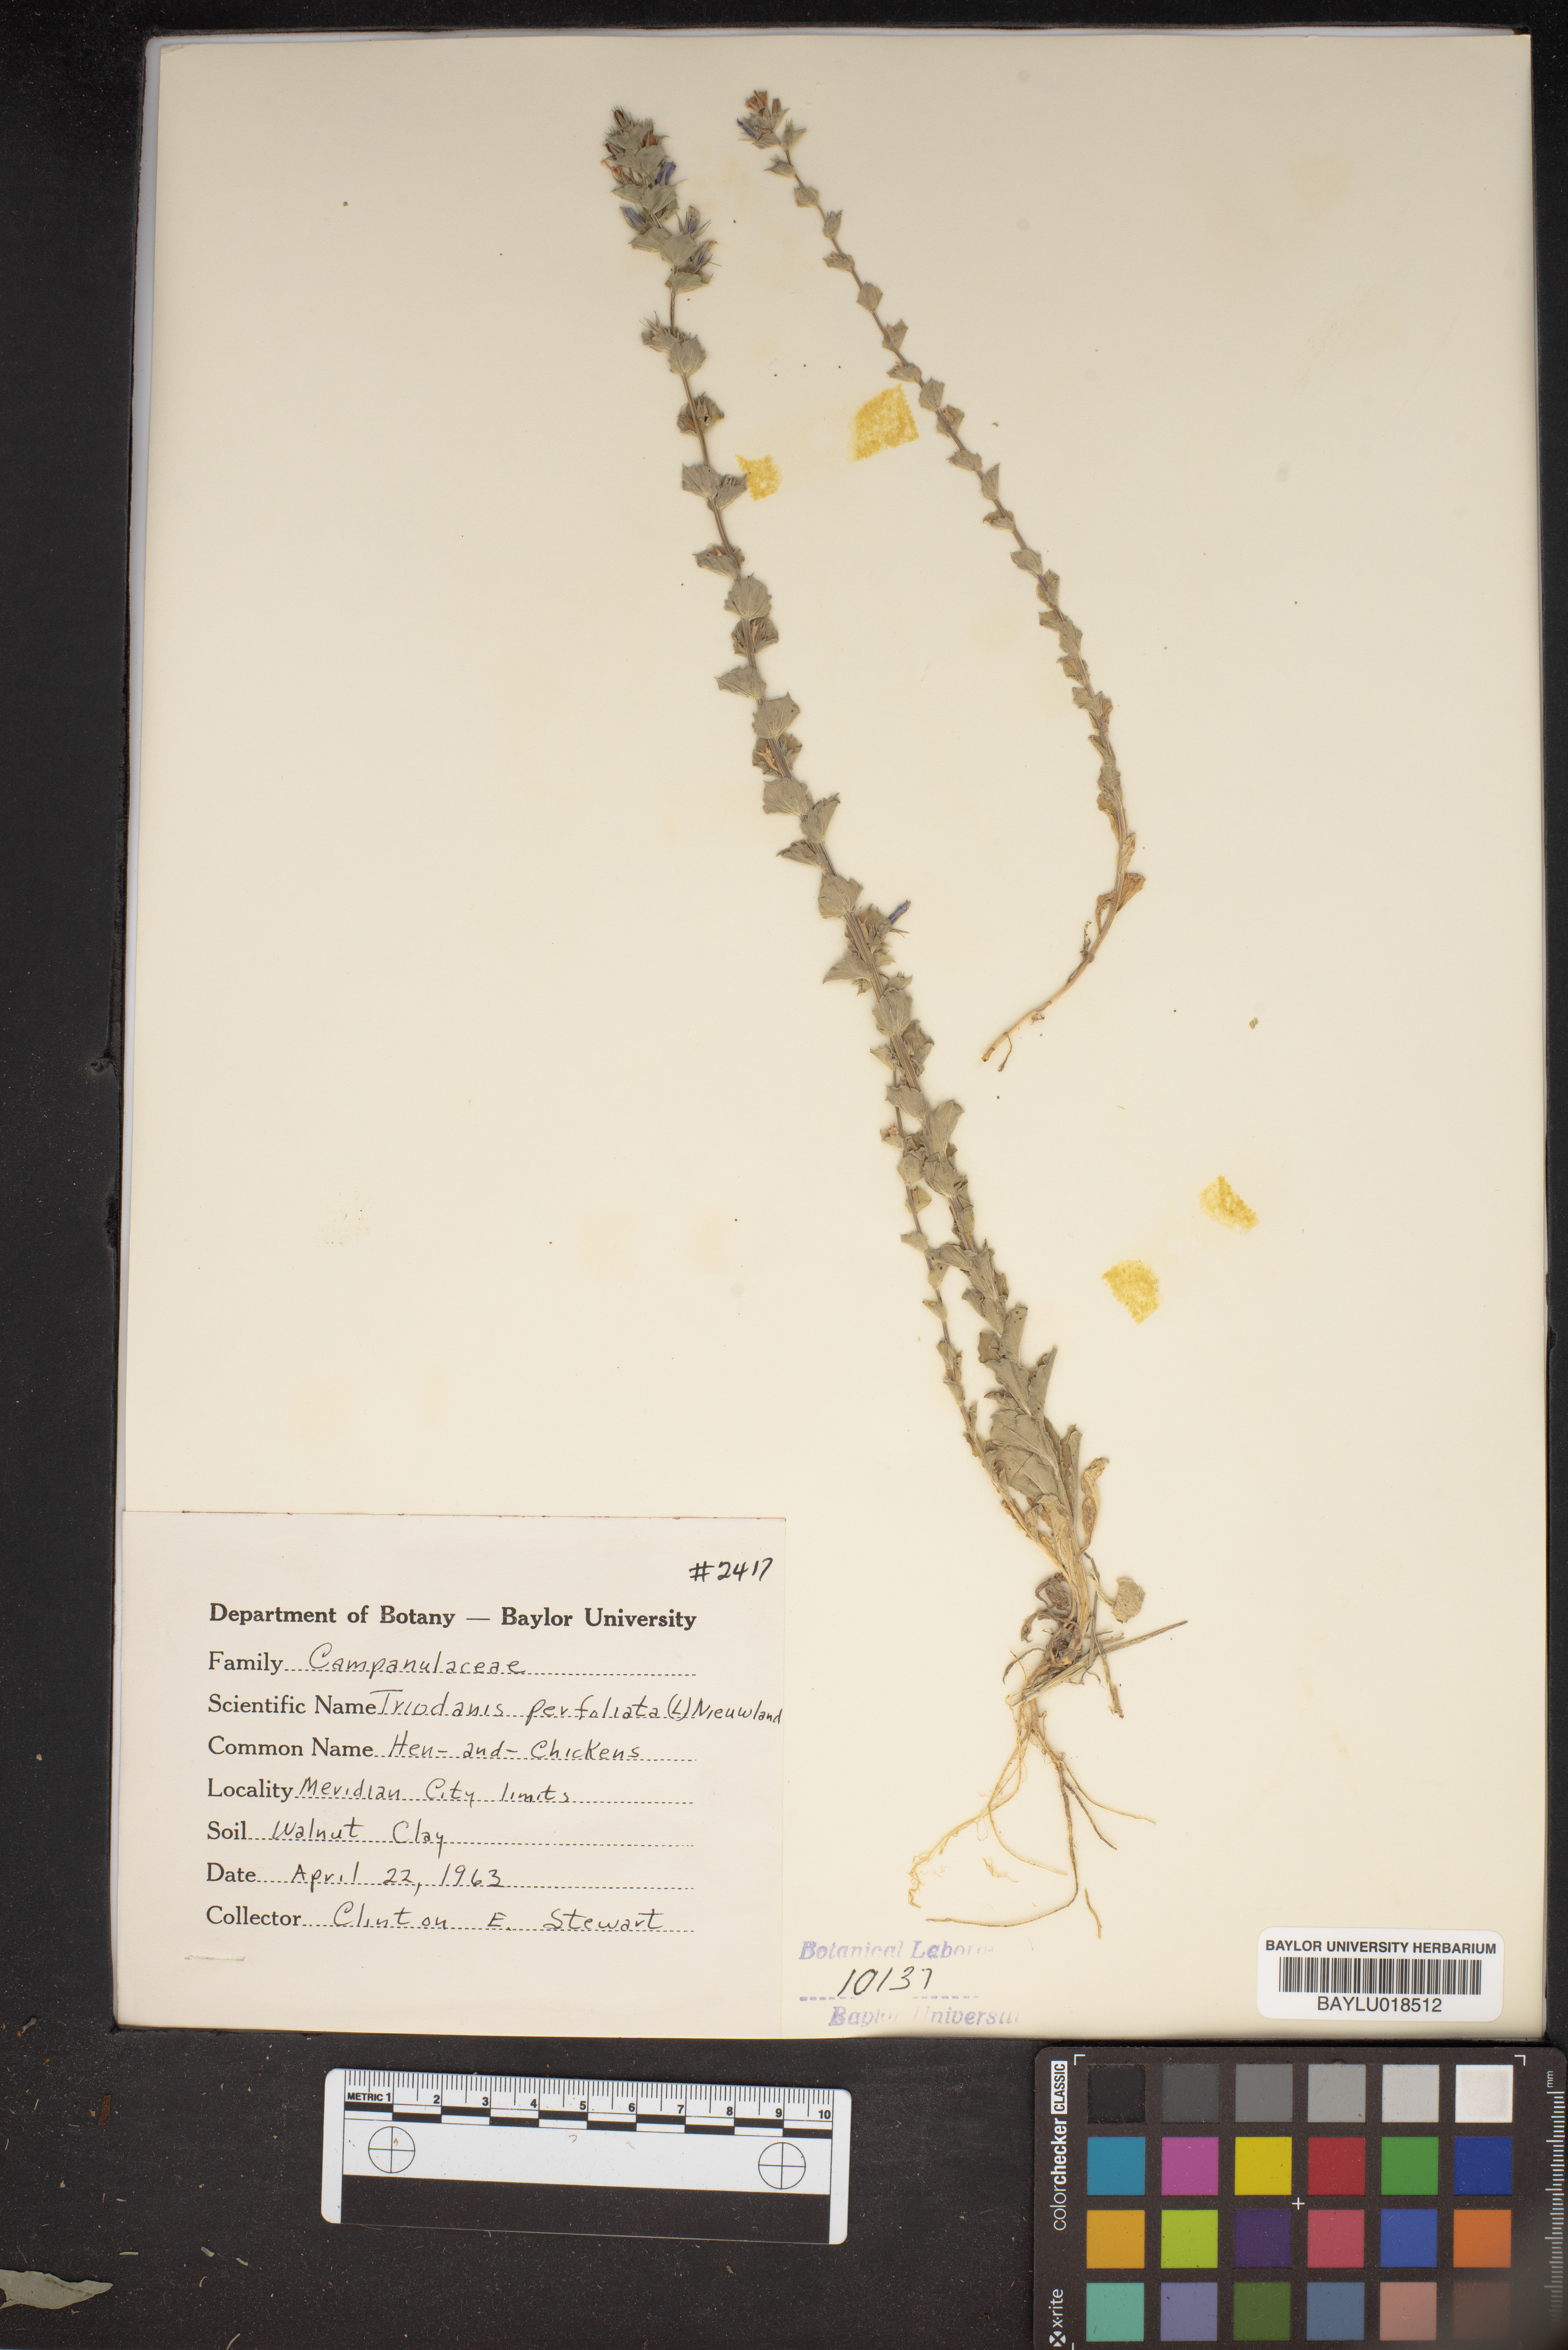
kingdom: Plantae
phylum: Tracheophyta
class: Magnoliopsida
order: Asterales
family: Campanulaceae
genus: Triodanis
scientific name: Triodanis perfoliata
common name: Clasping venus' looking-glass
